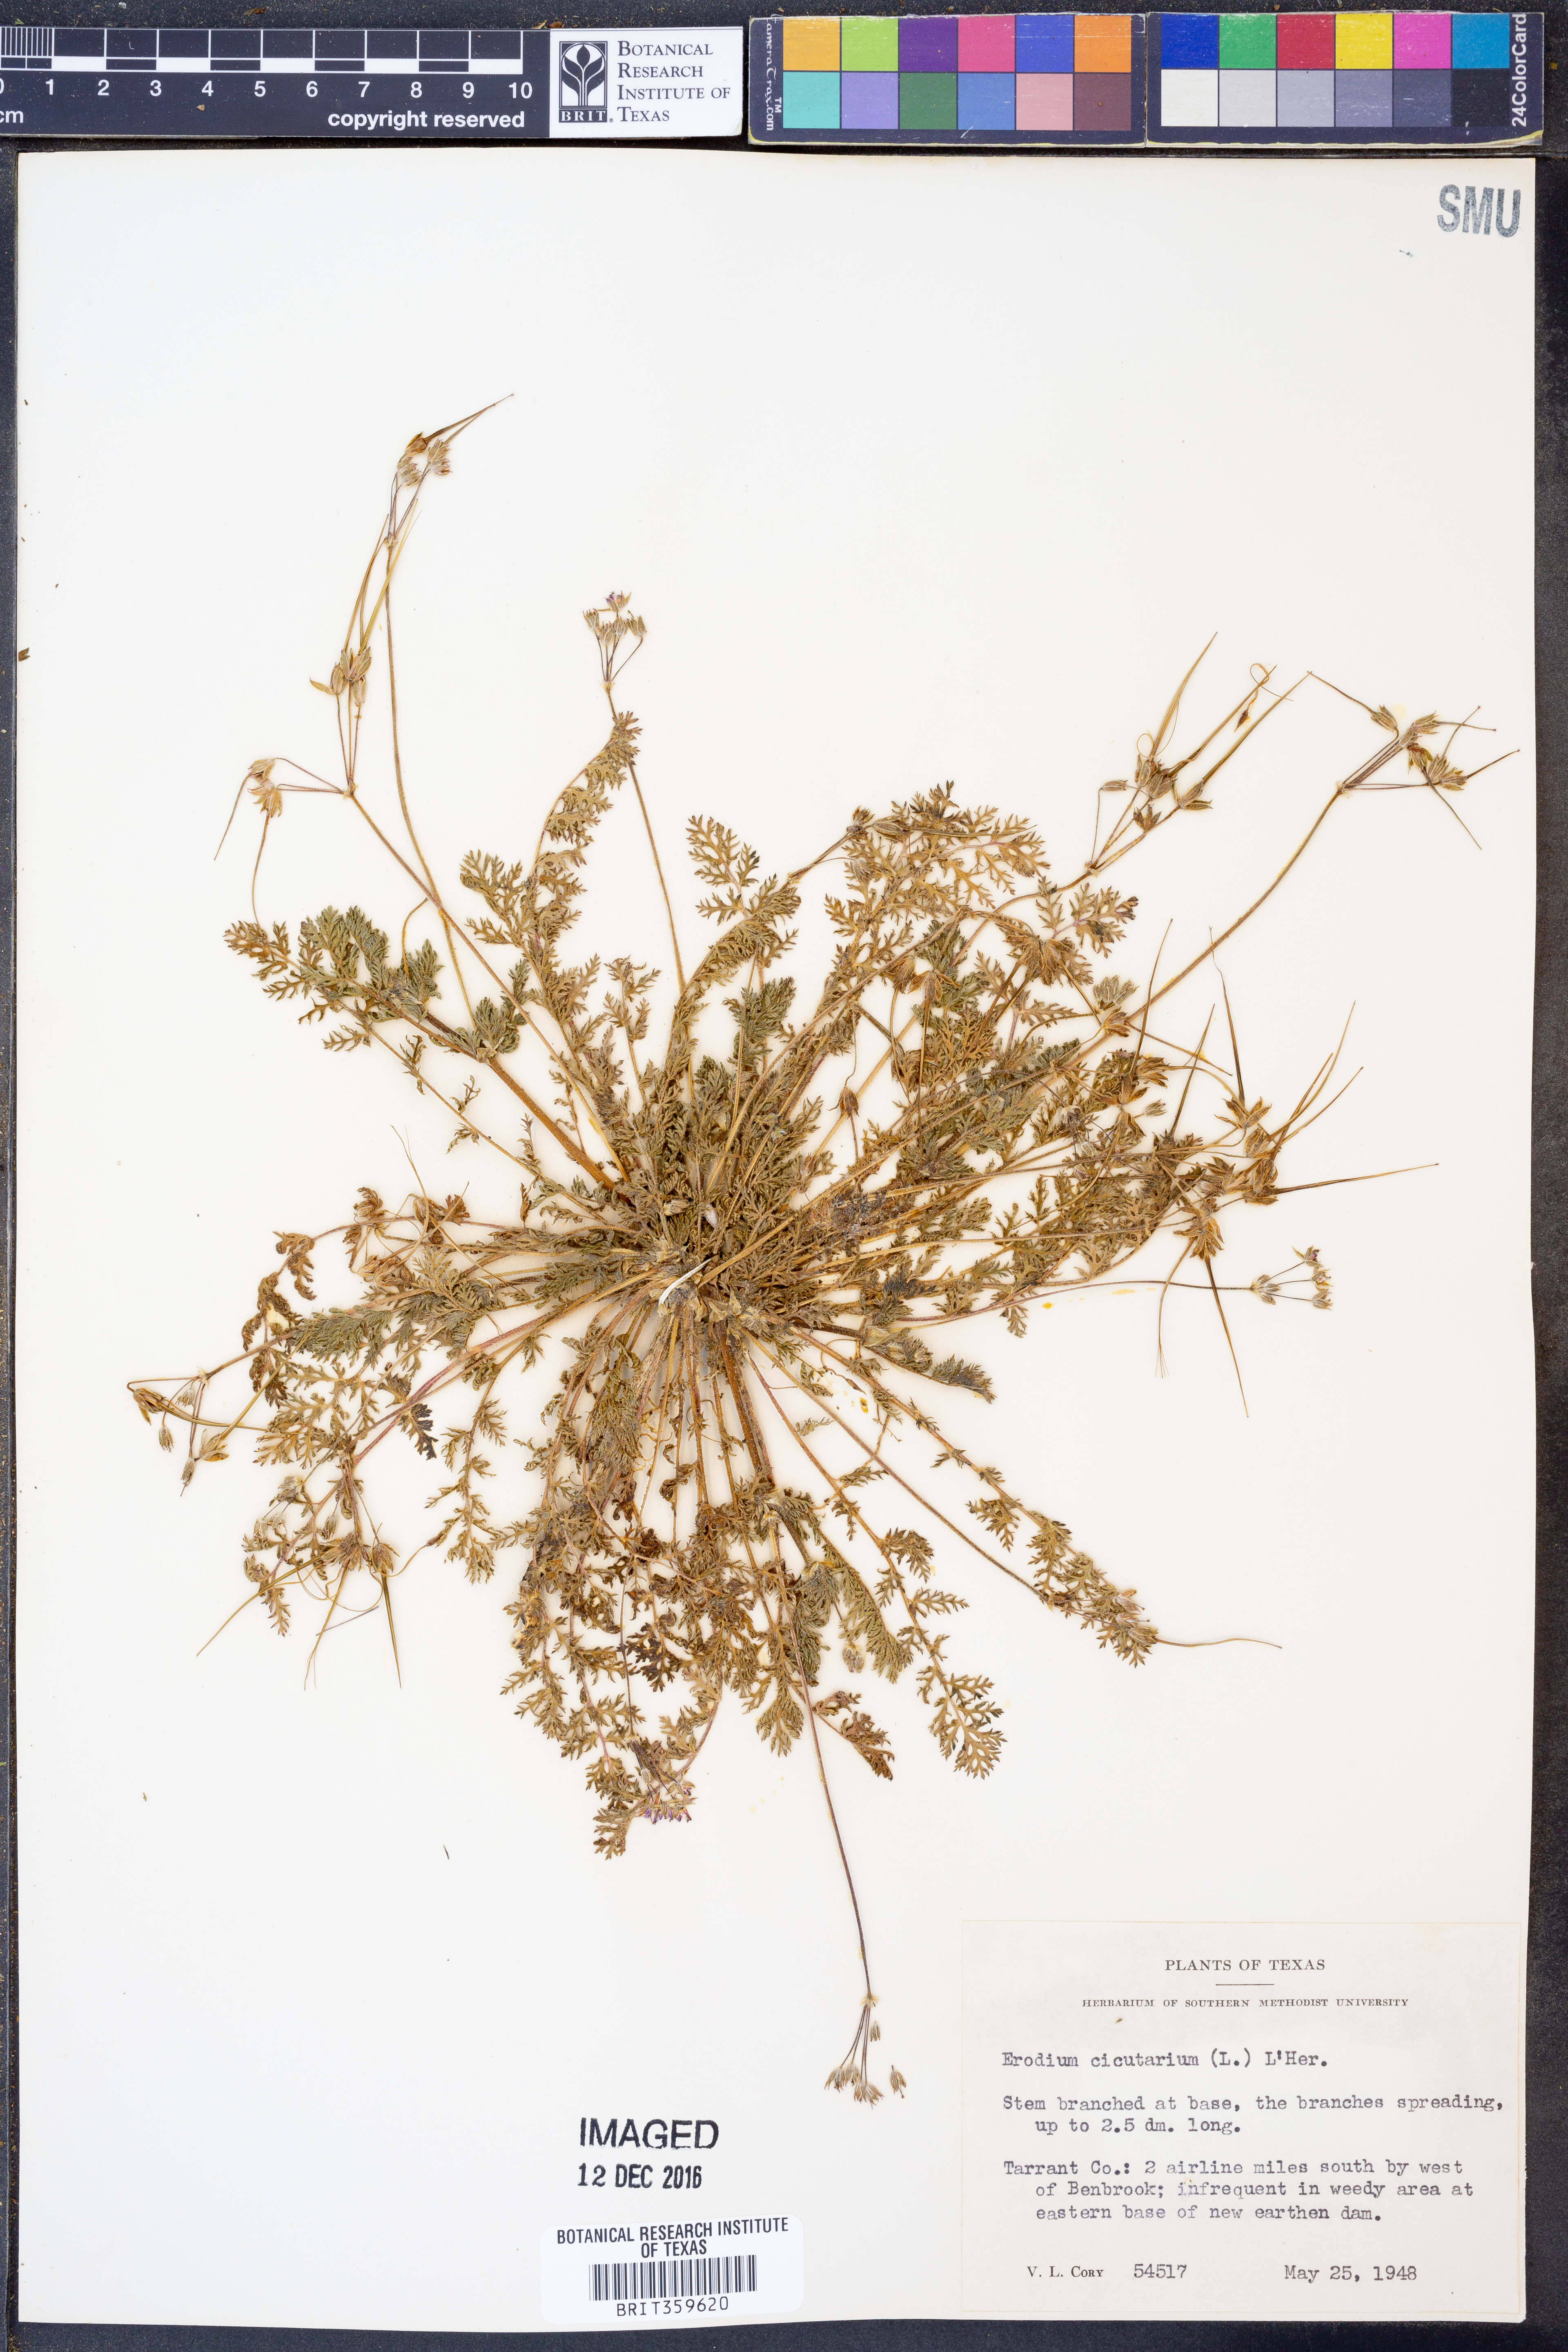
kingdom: Plantae
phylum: Tracheophyta
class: Magnoliopsida
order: Geraniales
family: Geraniaceae
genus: Erodium
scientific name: Erodium cicutarium
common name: Common stork's-bill
